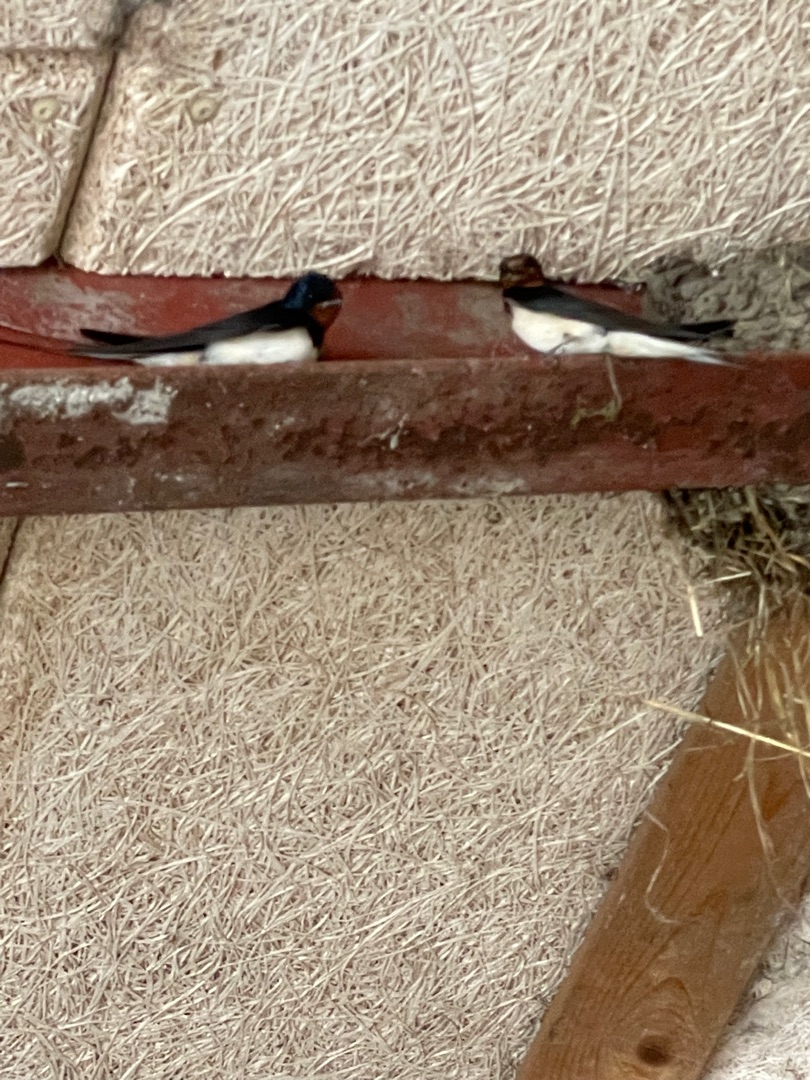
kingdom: Animalia
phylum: Chordata
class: Aves
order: Passeriformes
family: Hirundinidae
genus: Hirundo
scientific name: Hirundo rustica
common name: Landsvale
